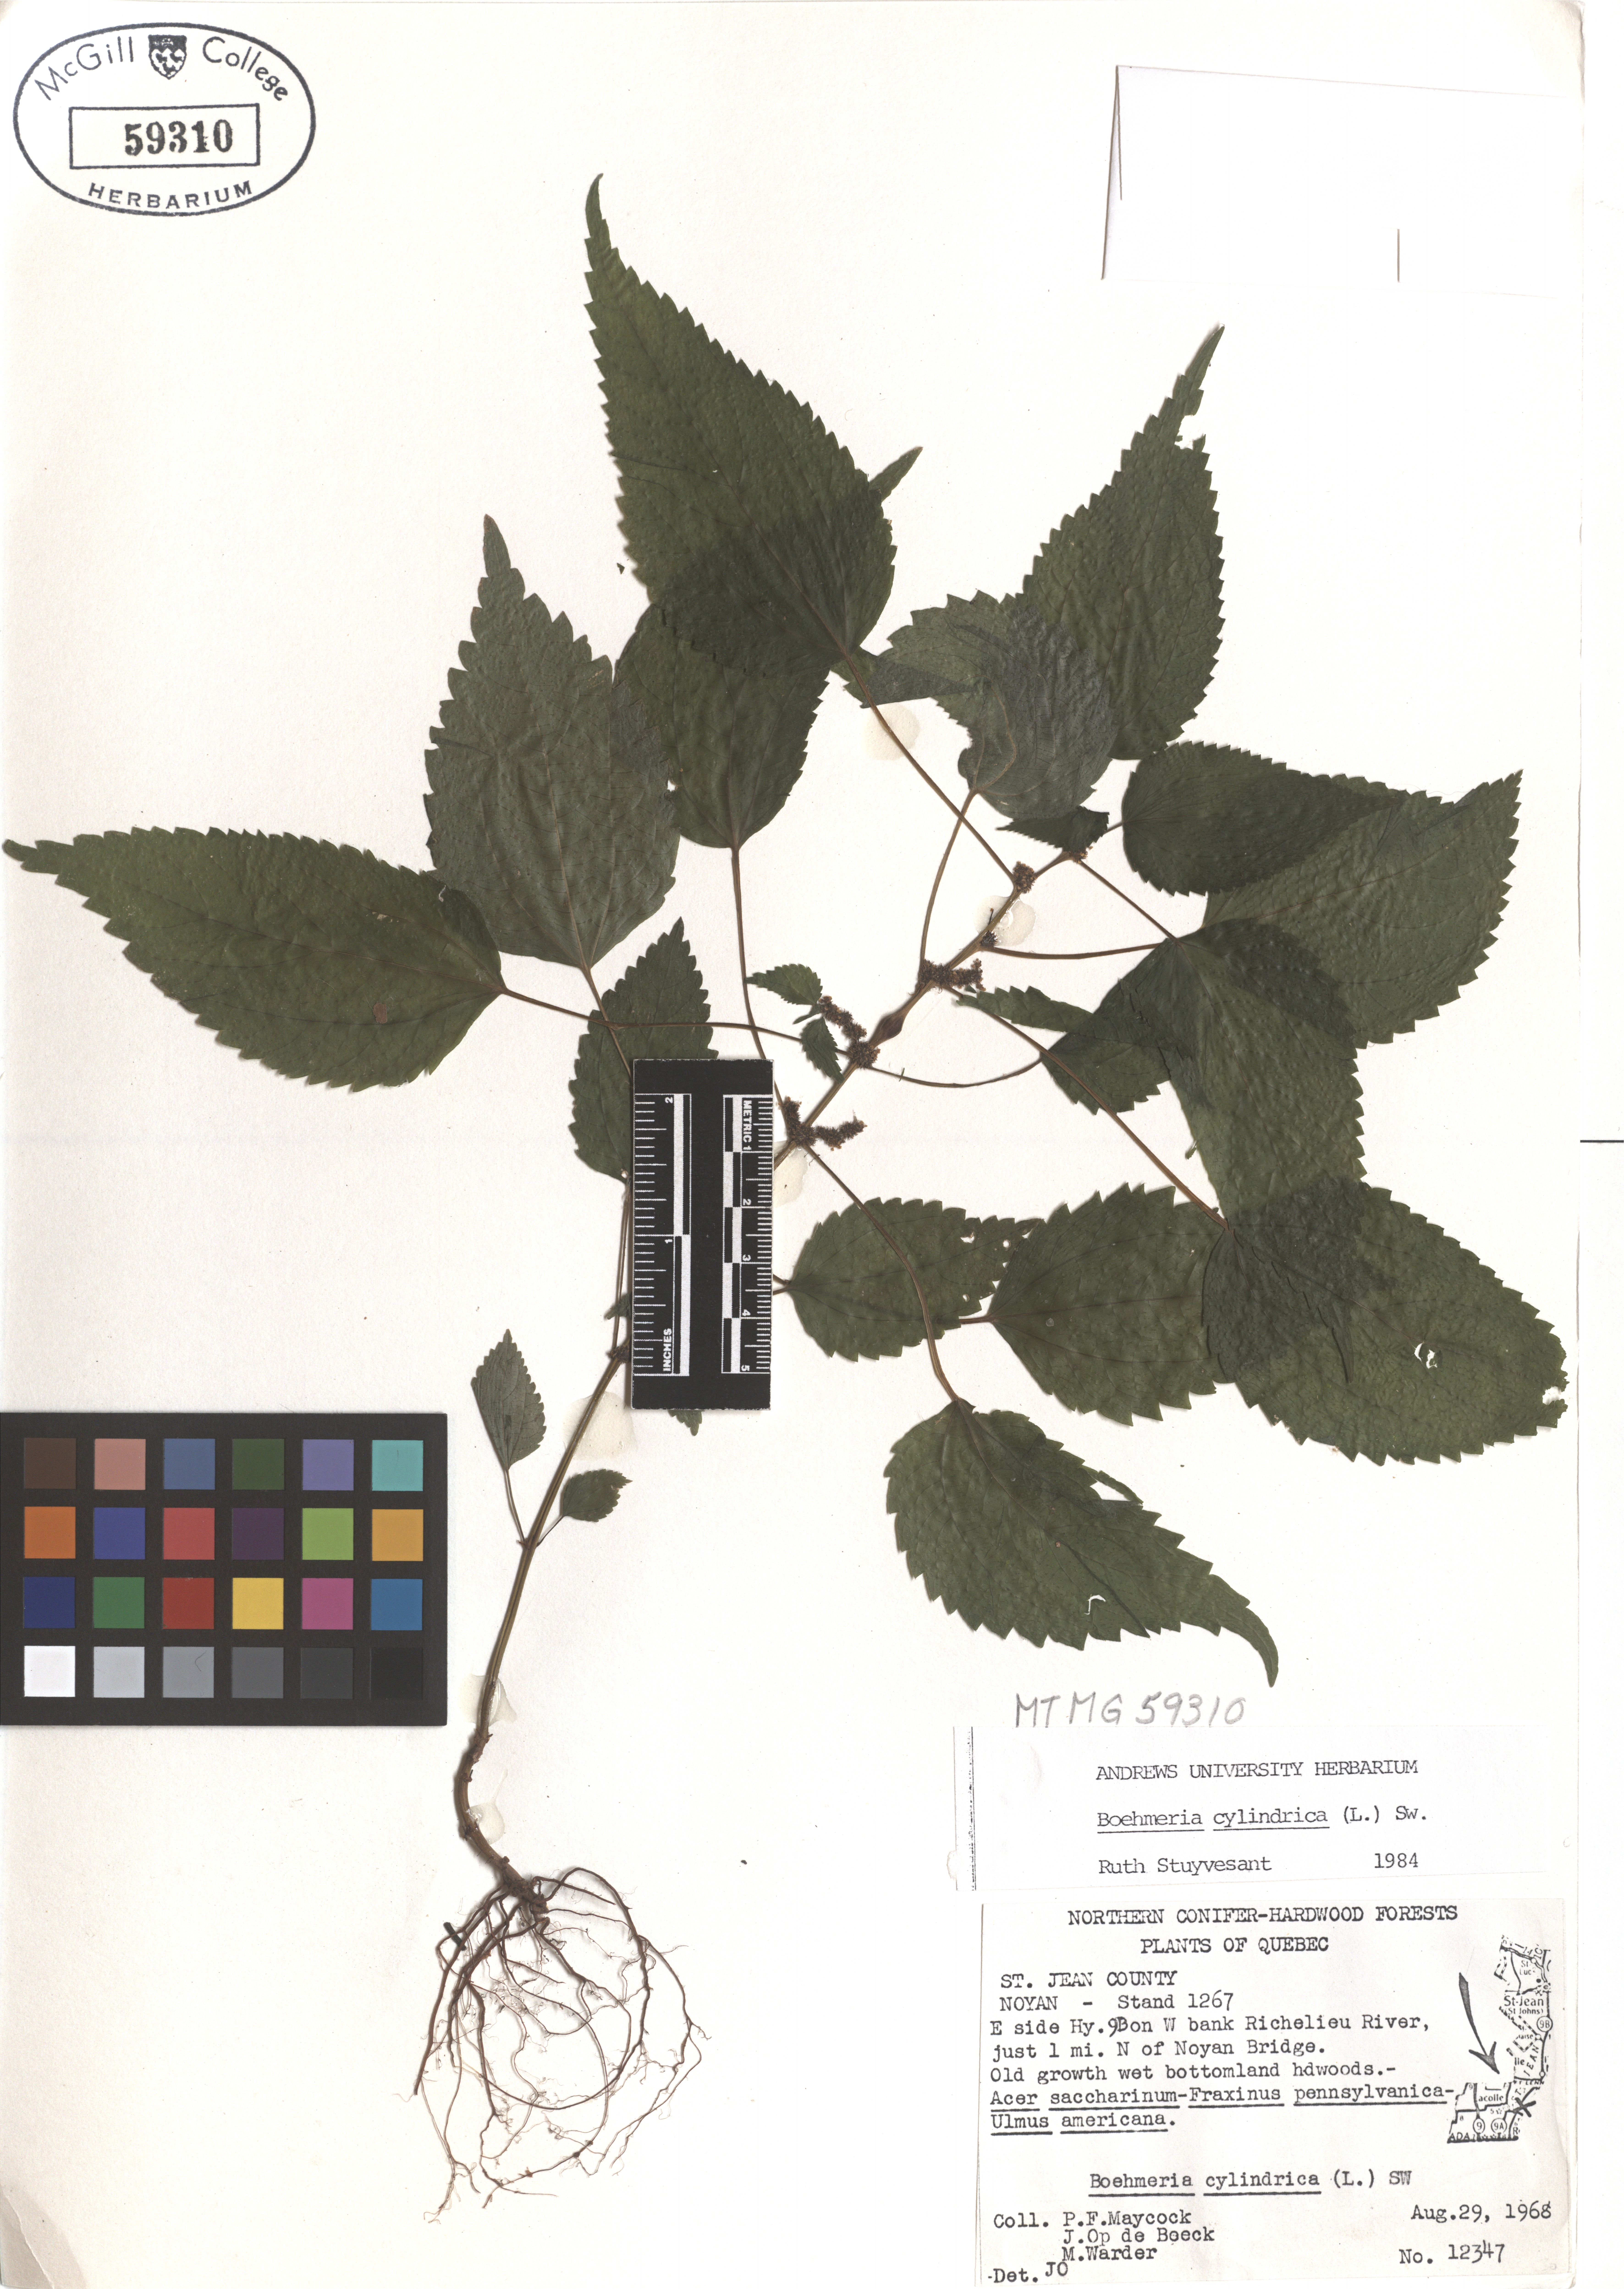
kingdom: Plantae
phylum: Tracheophyta
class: Magnoliopsida
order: Rosales
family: Urticaceae
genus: Boehmeria
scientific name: Boehmeria cylindrica
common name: Bog-hemp
